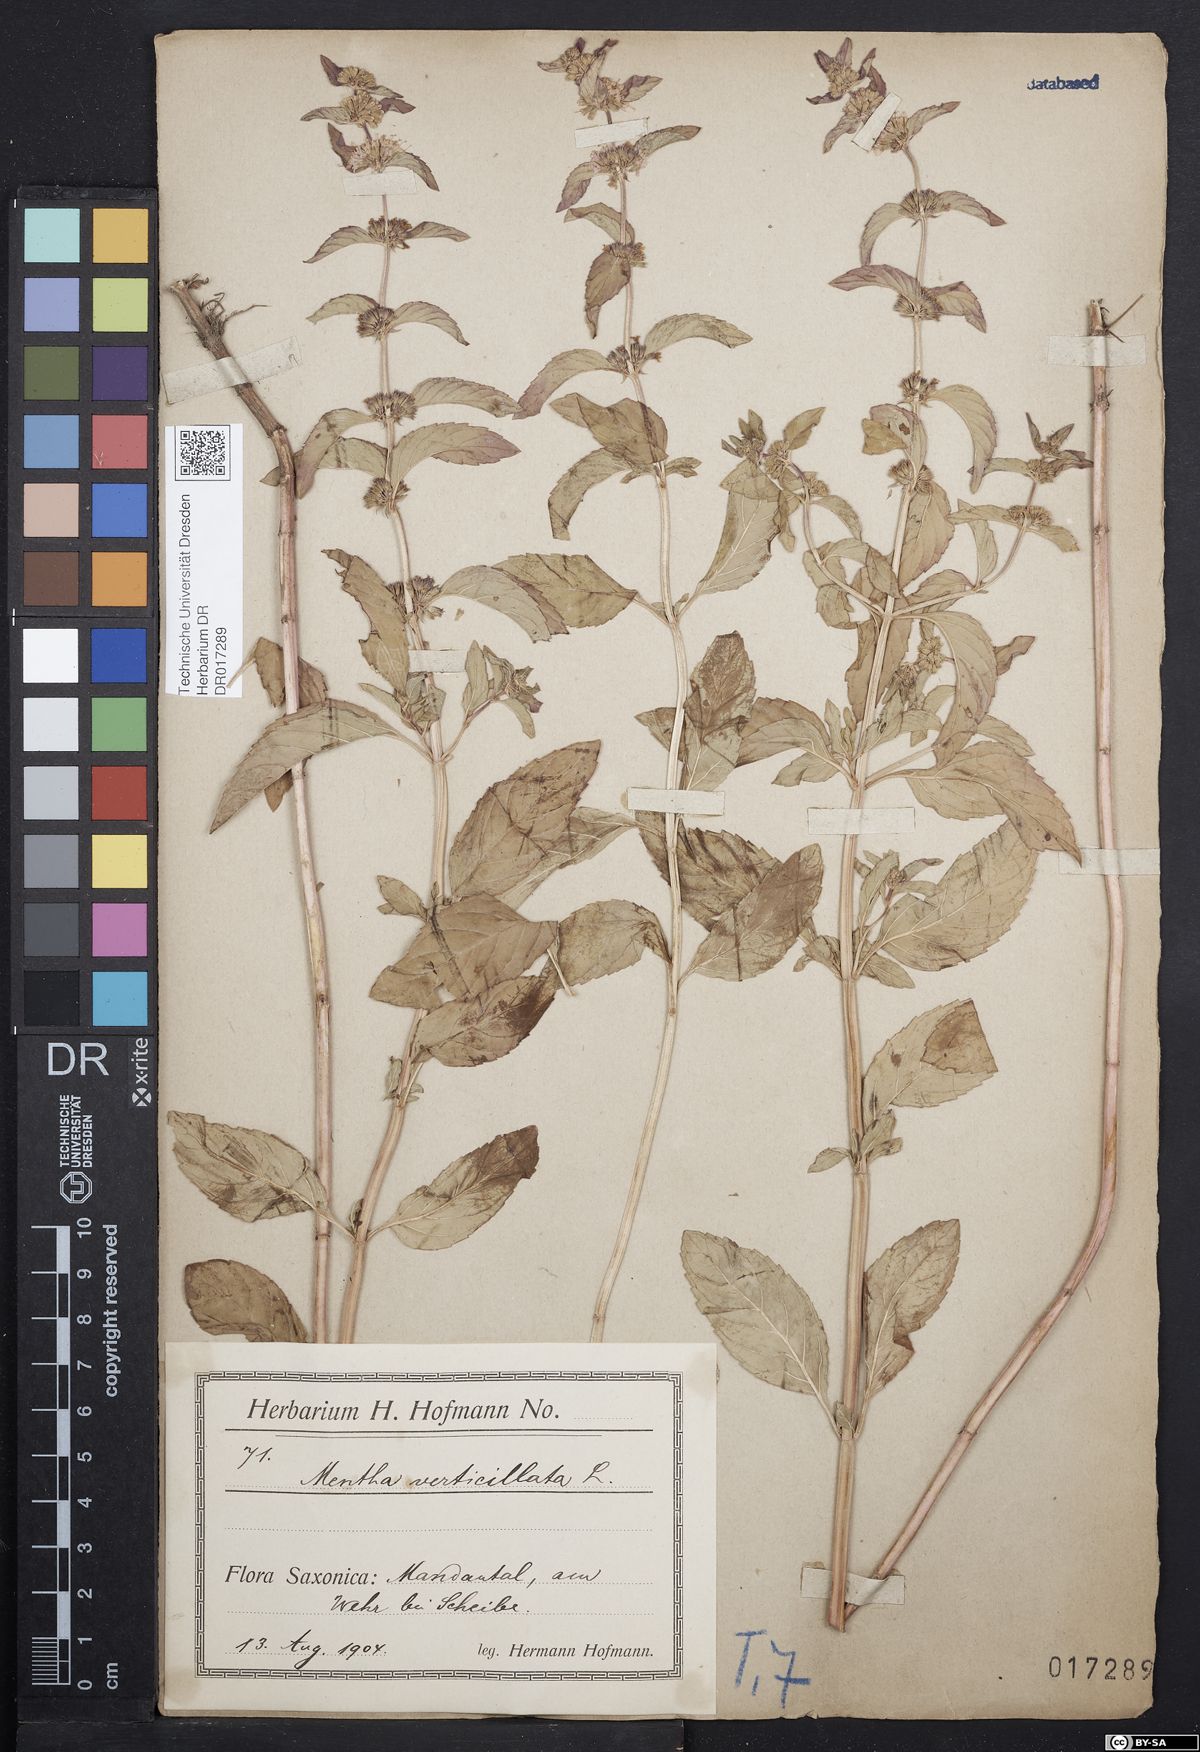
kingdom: Plantae
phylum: Tracheophyta
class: Magnoliopsida
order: Lamiales
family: Lamiaceae
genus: Mentha
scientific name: Mentha verticillata
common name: Mint
